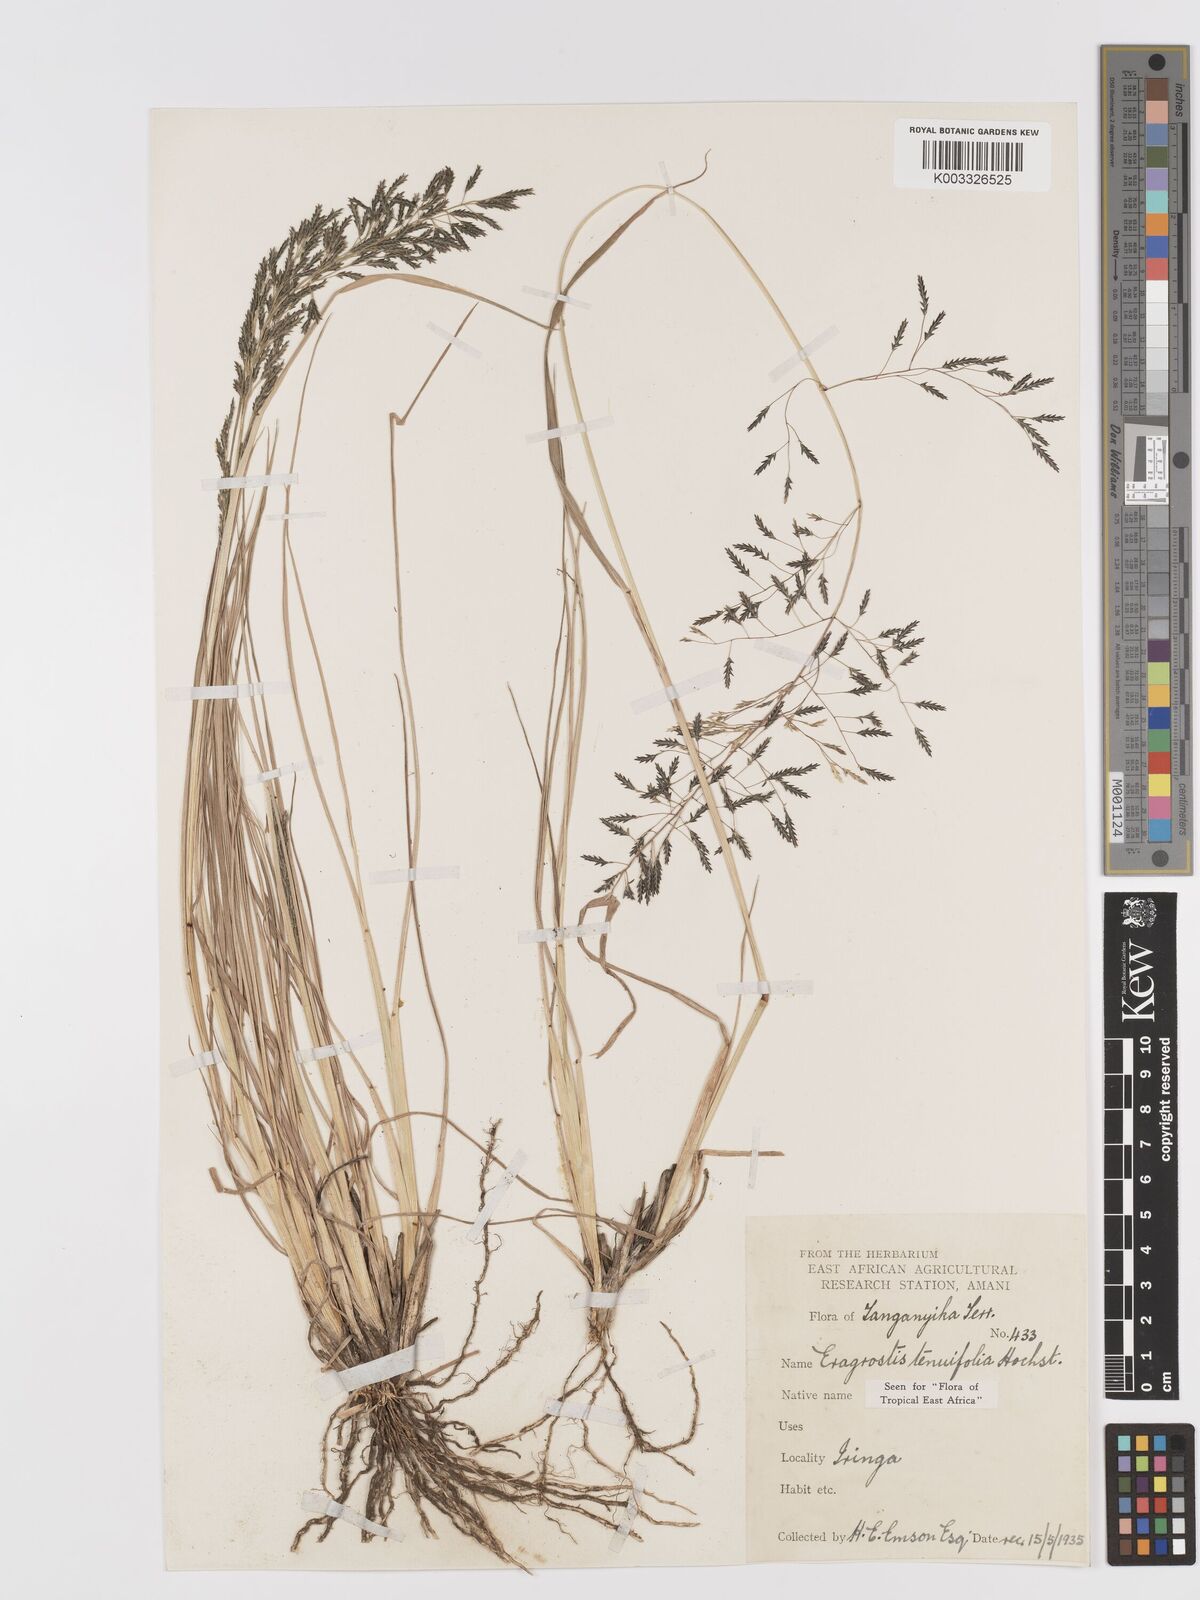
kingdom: Plantae
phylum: Tracheophyta
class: Liliopsida
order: Poales
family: Poaceae
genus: Eragrostis
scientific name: Eragrostis tenuifolia
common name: Elastic grass
